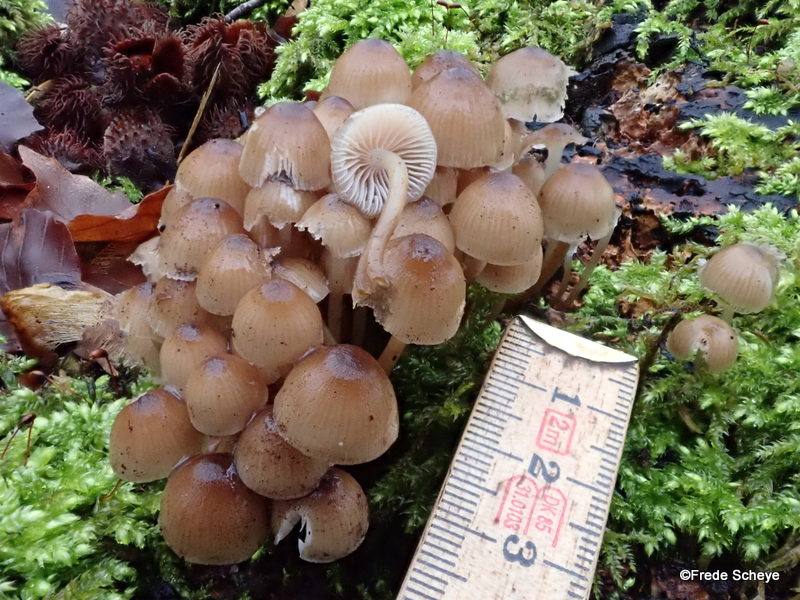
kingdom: Fungi
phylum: Basidiomycota
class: Agaricomycetes
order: Agaricales
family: Mycenaceae
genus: Mycena
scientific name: Mycena tintinnabulum
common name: vinter-huesvamp
